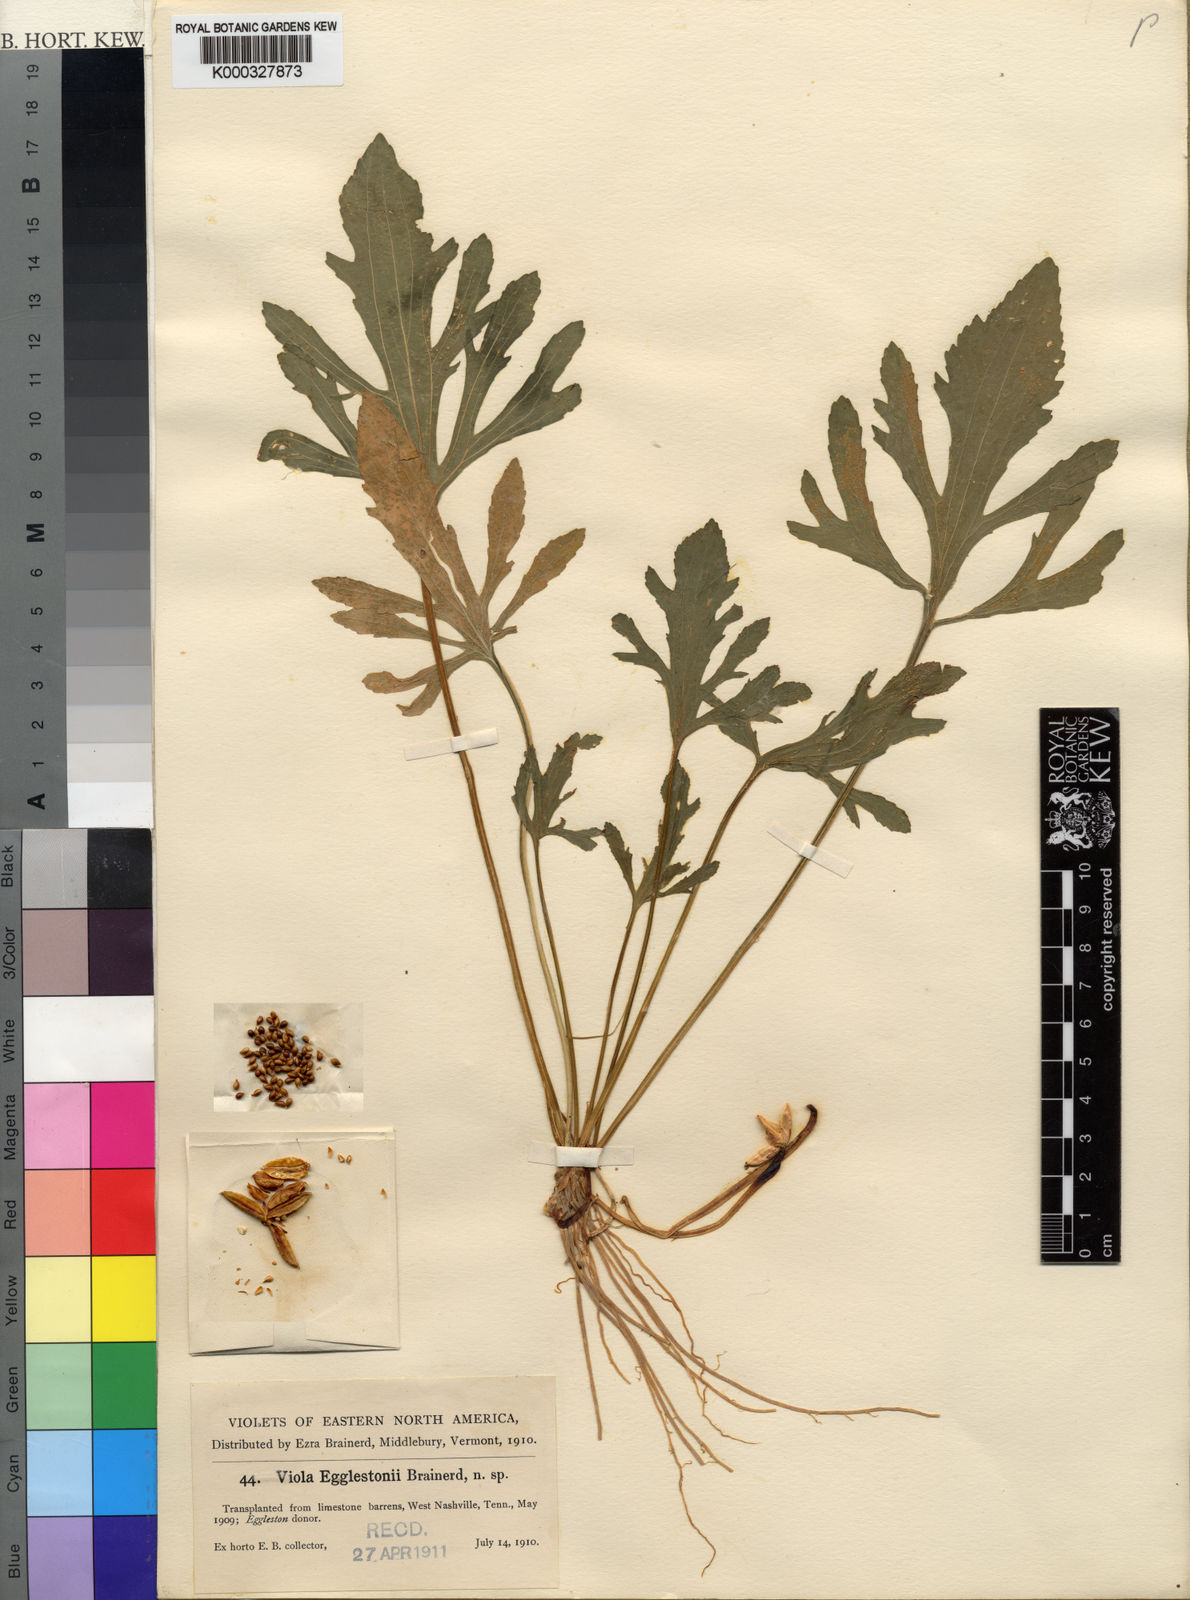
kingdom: Plantae
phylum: Tracheophyta
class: Magnoliopsida
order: Malpighiales
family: Violaceae
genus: Viola
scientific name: Viola egglestonii
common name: Glade violet
